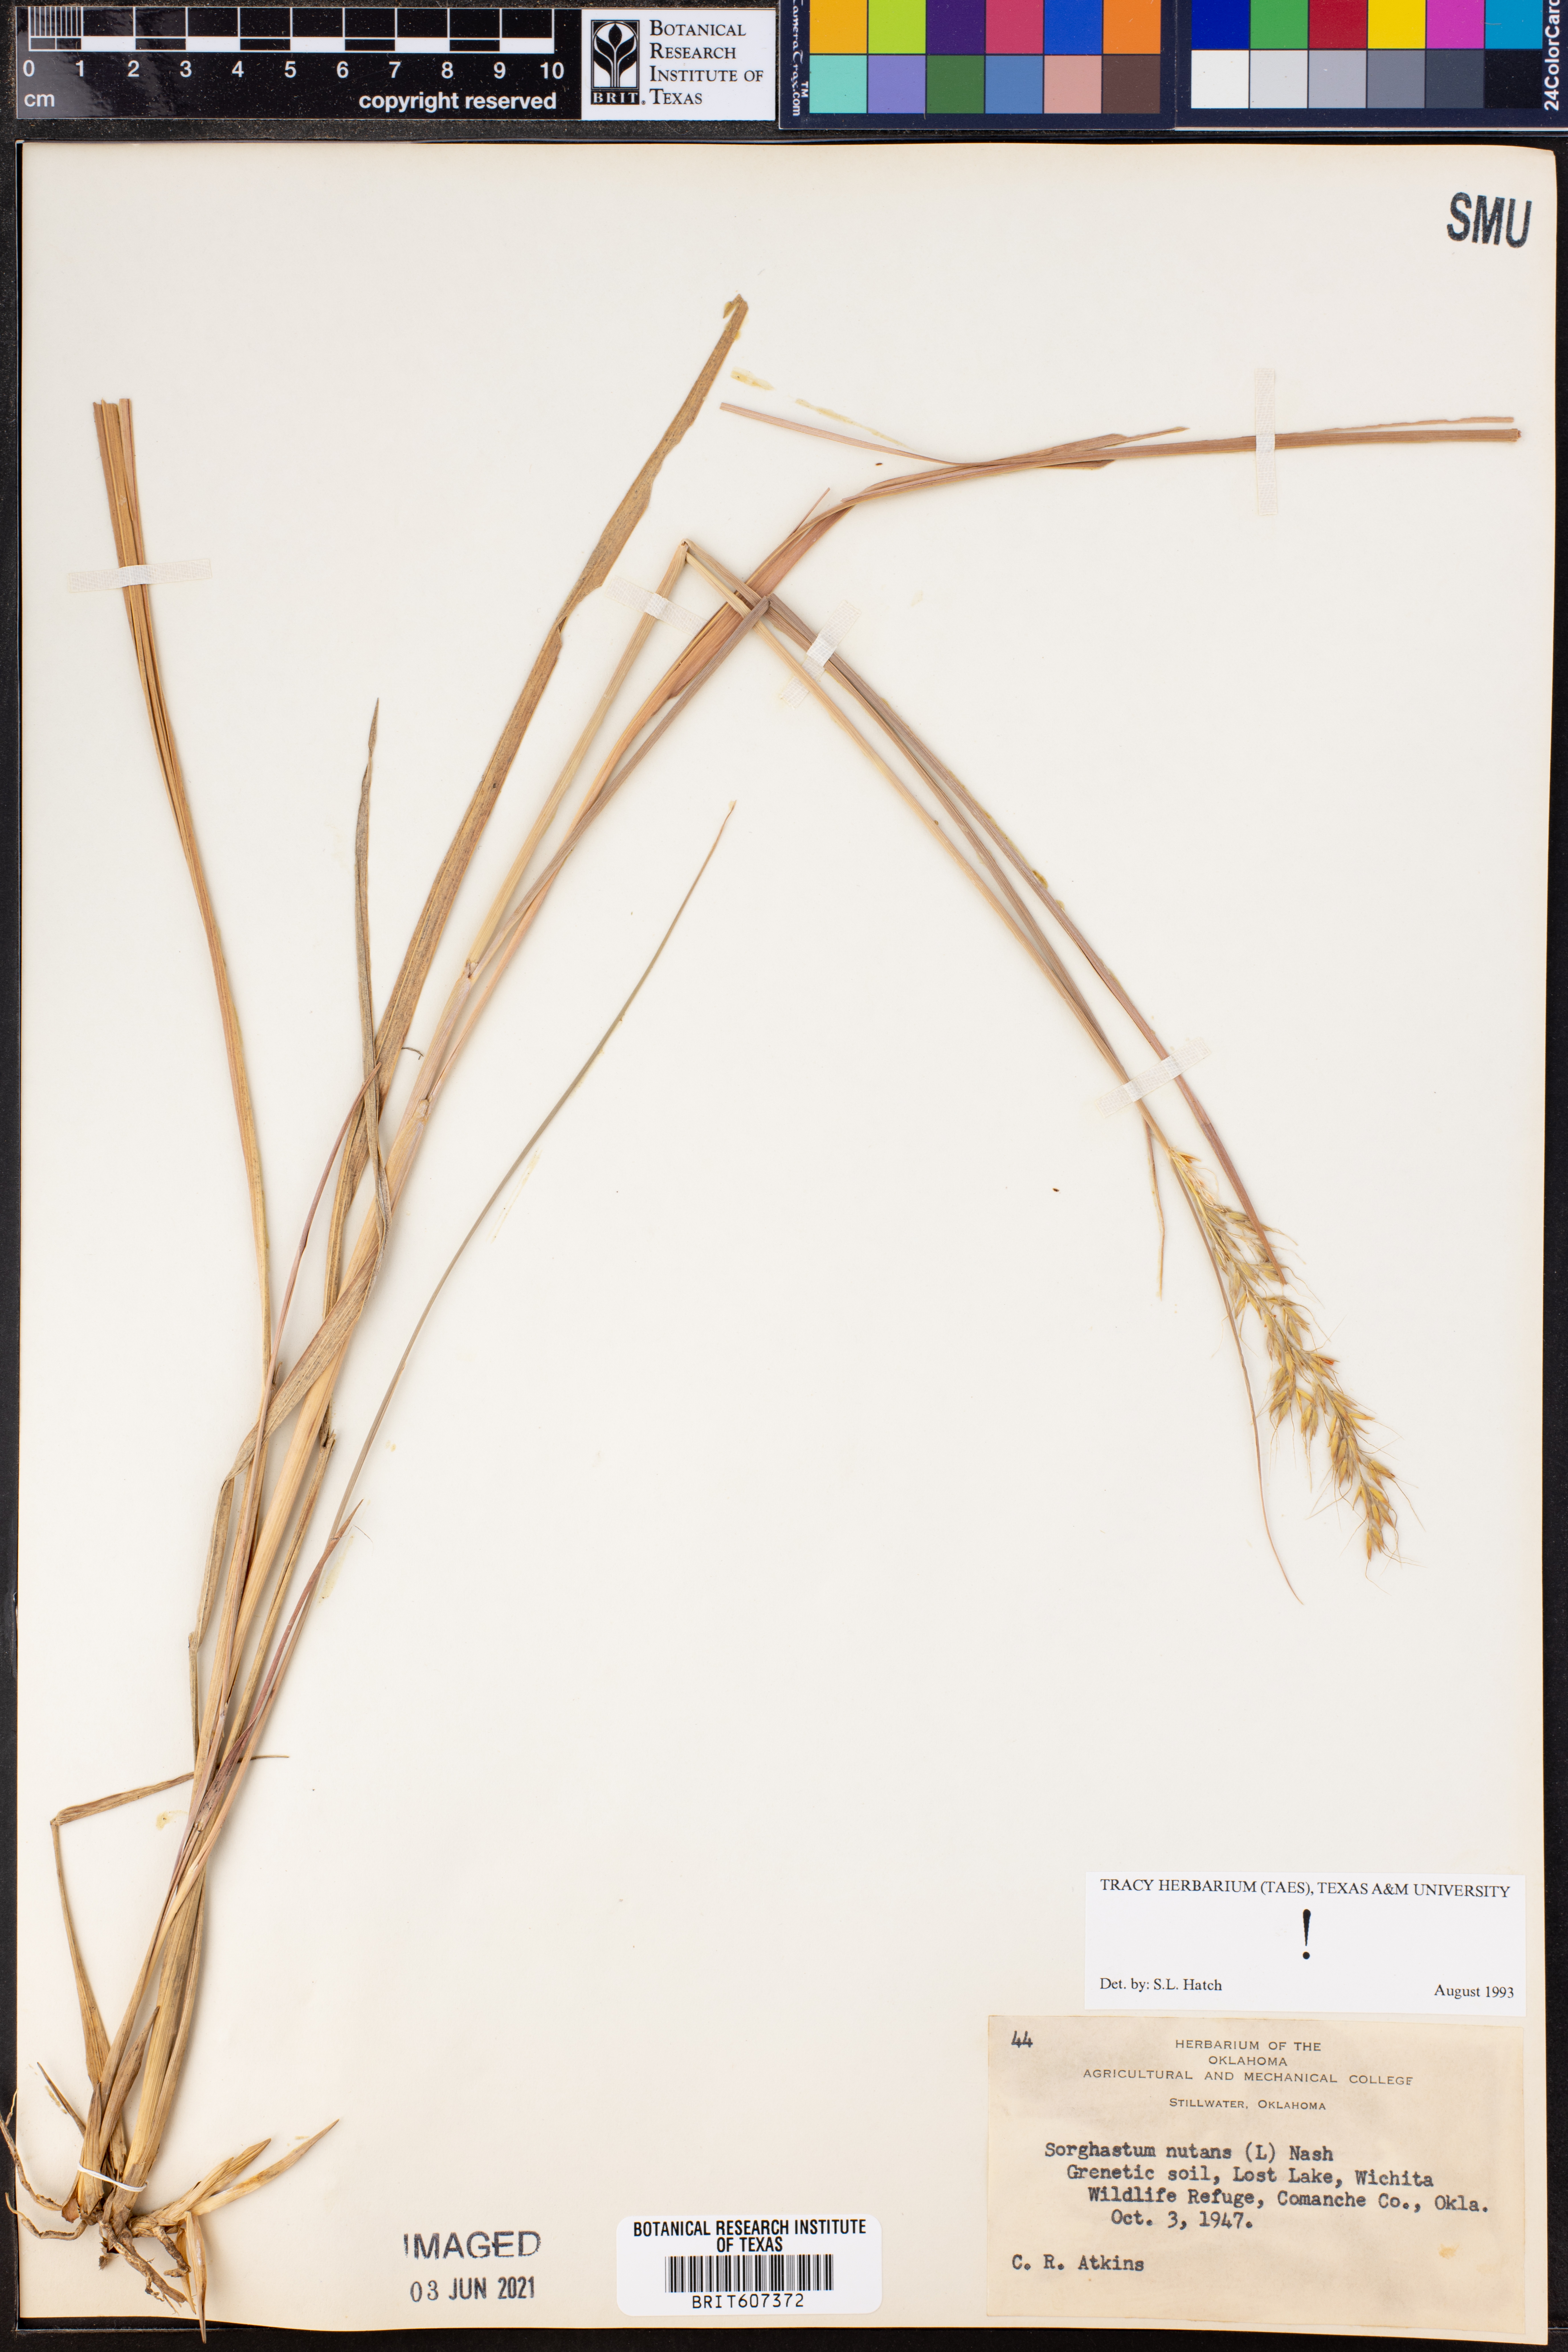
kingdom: Plantae
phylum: Tracheophyta
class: Liliopsida
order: Poales
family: Poaceae
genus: Sorghastrum
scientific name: Sorghastrum nutans
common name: Indian grass
